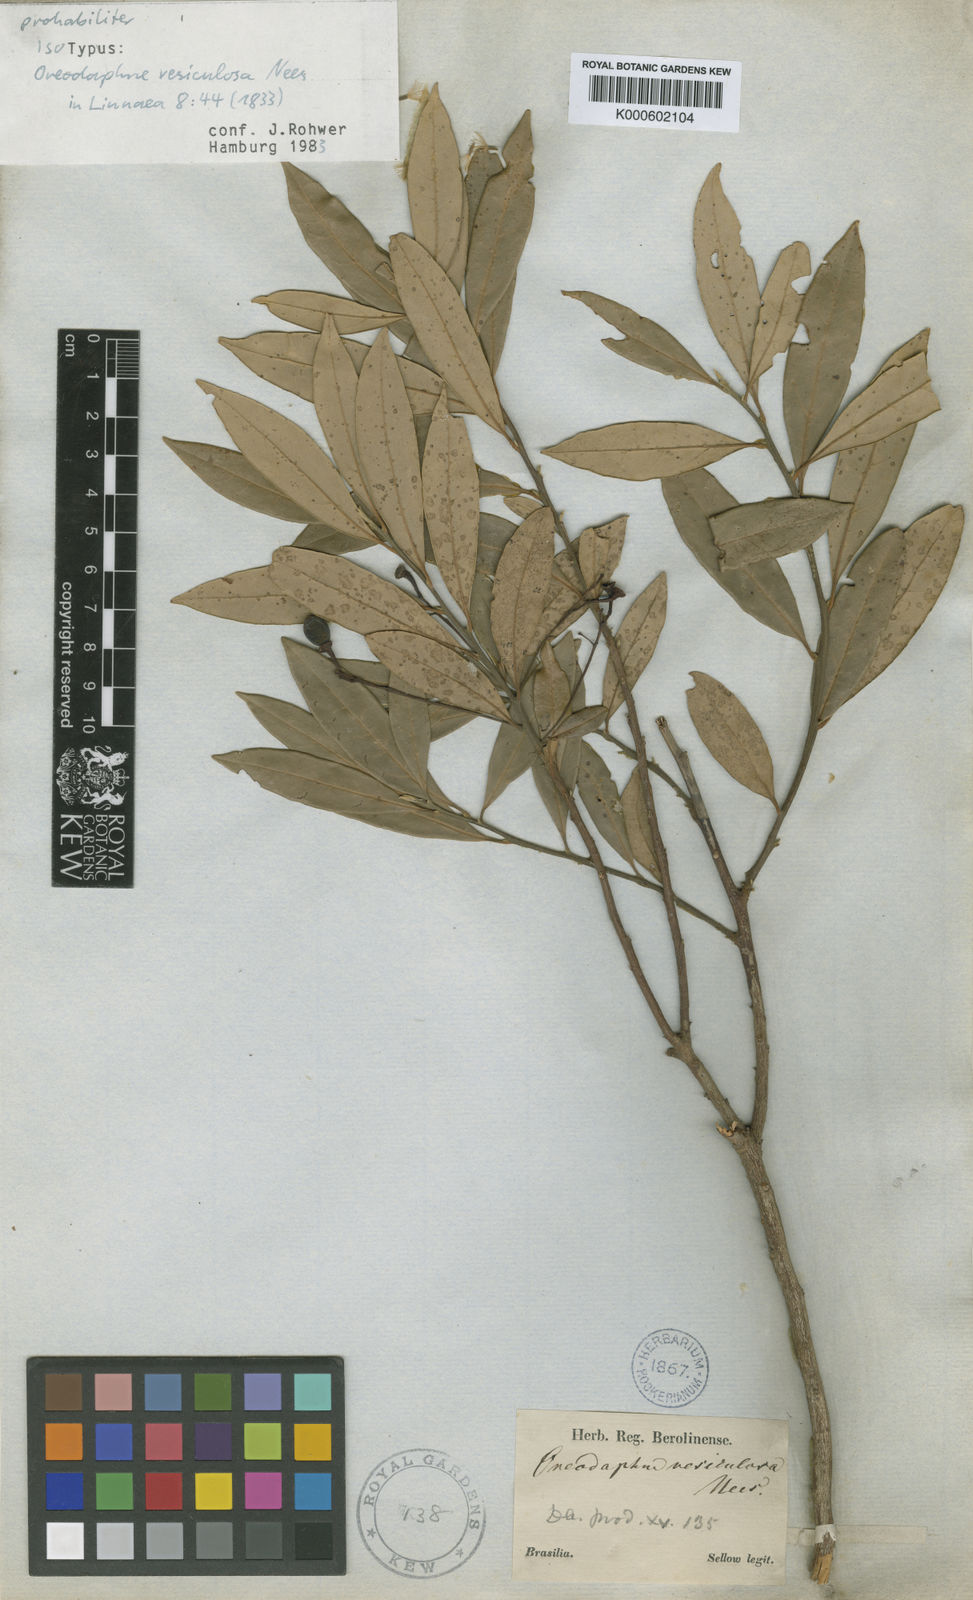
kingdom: Plantae
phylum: Tracheophyta
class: Magnoliopsida
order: Laurales
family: Lauraceae
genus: Aiouea
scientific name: Aiouea amoena
